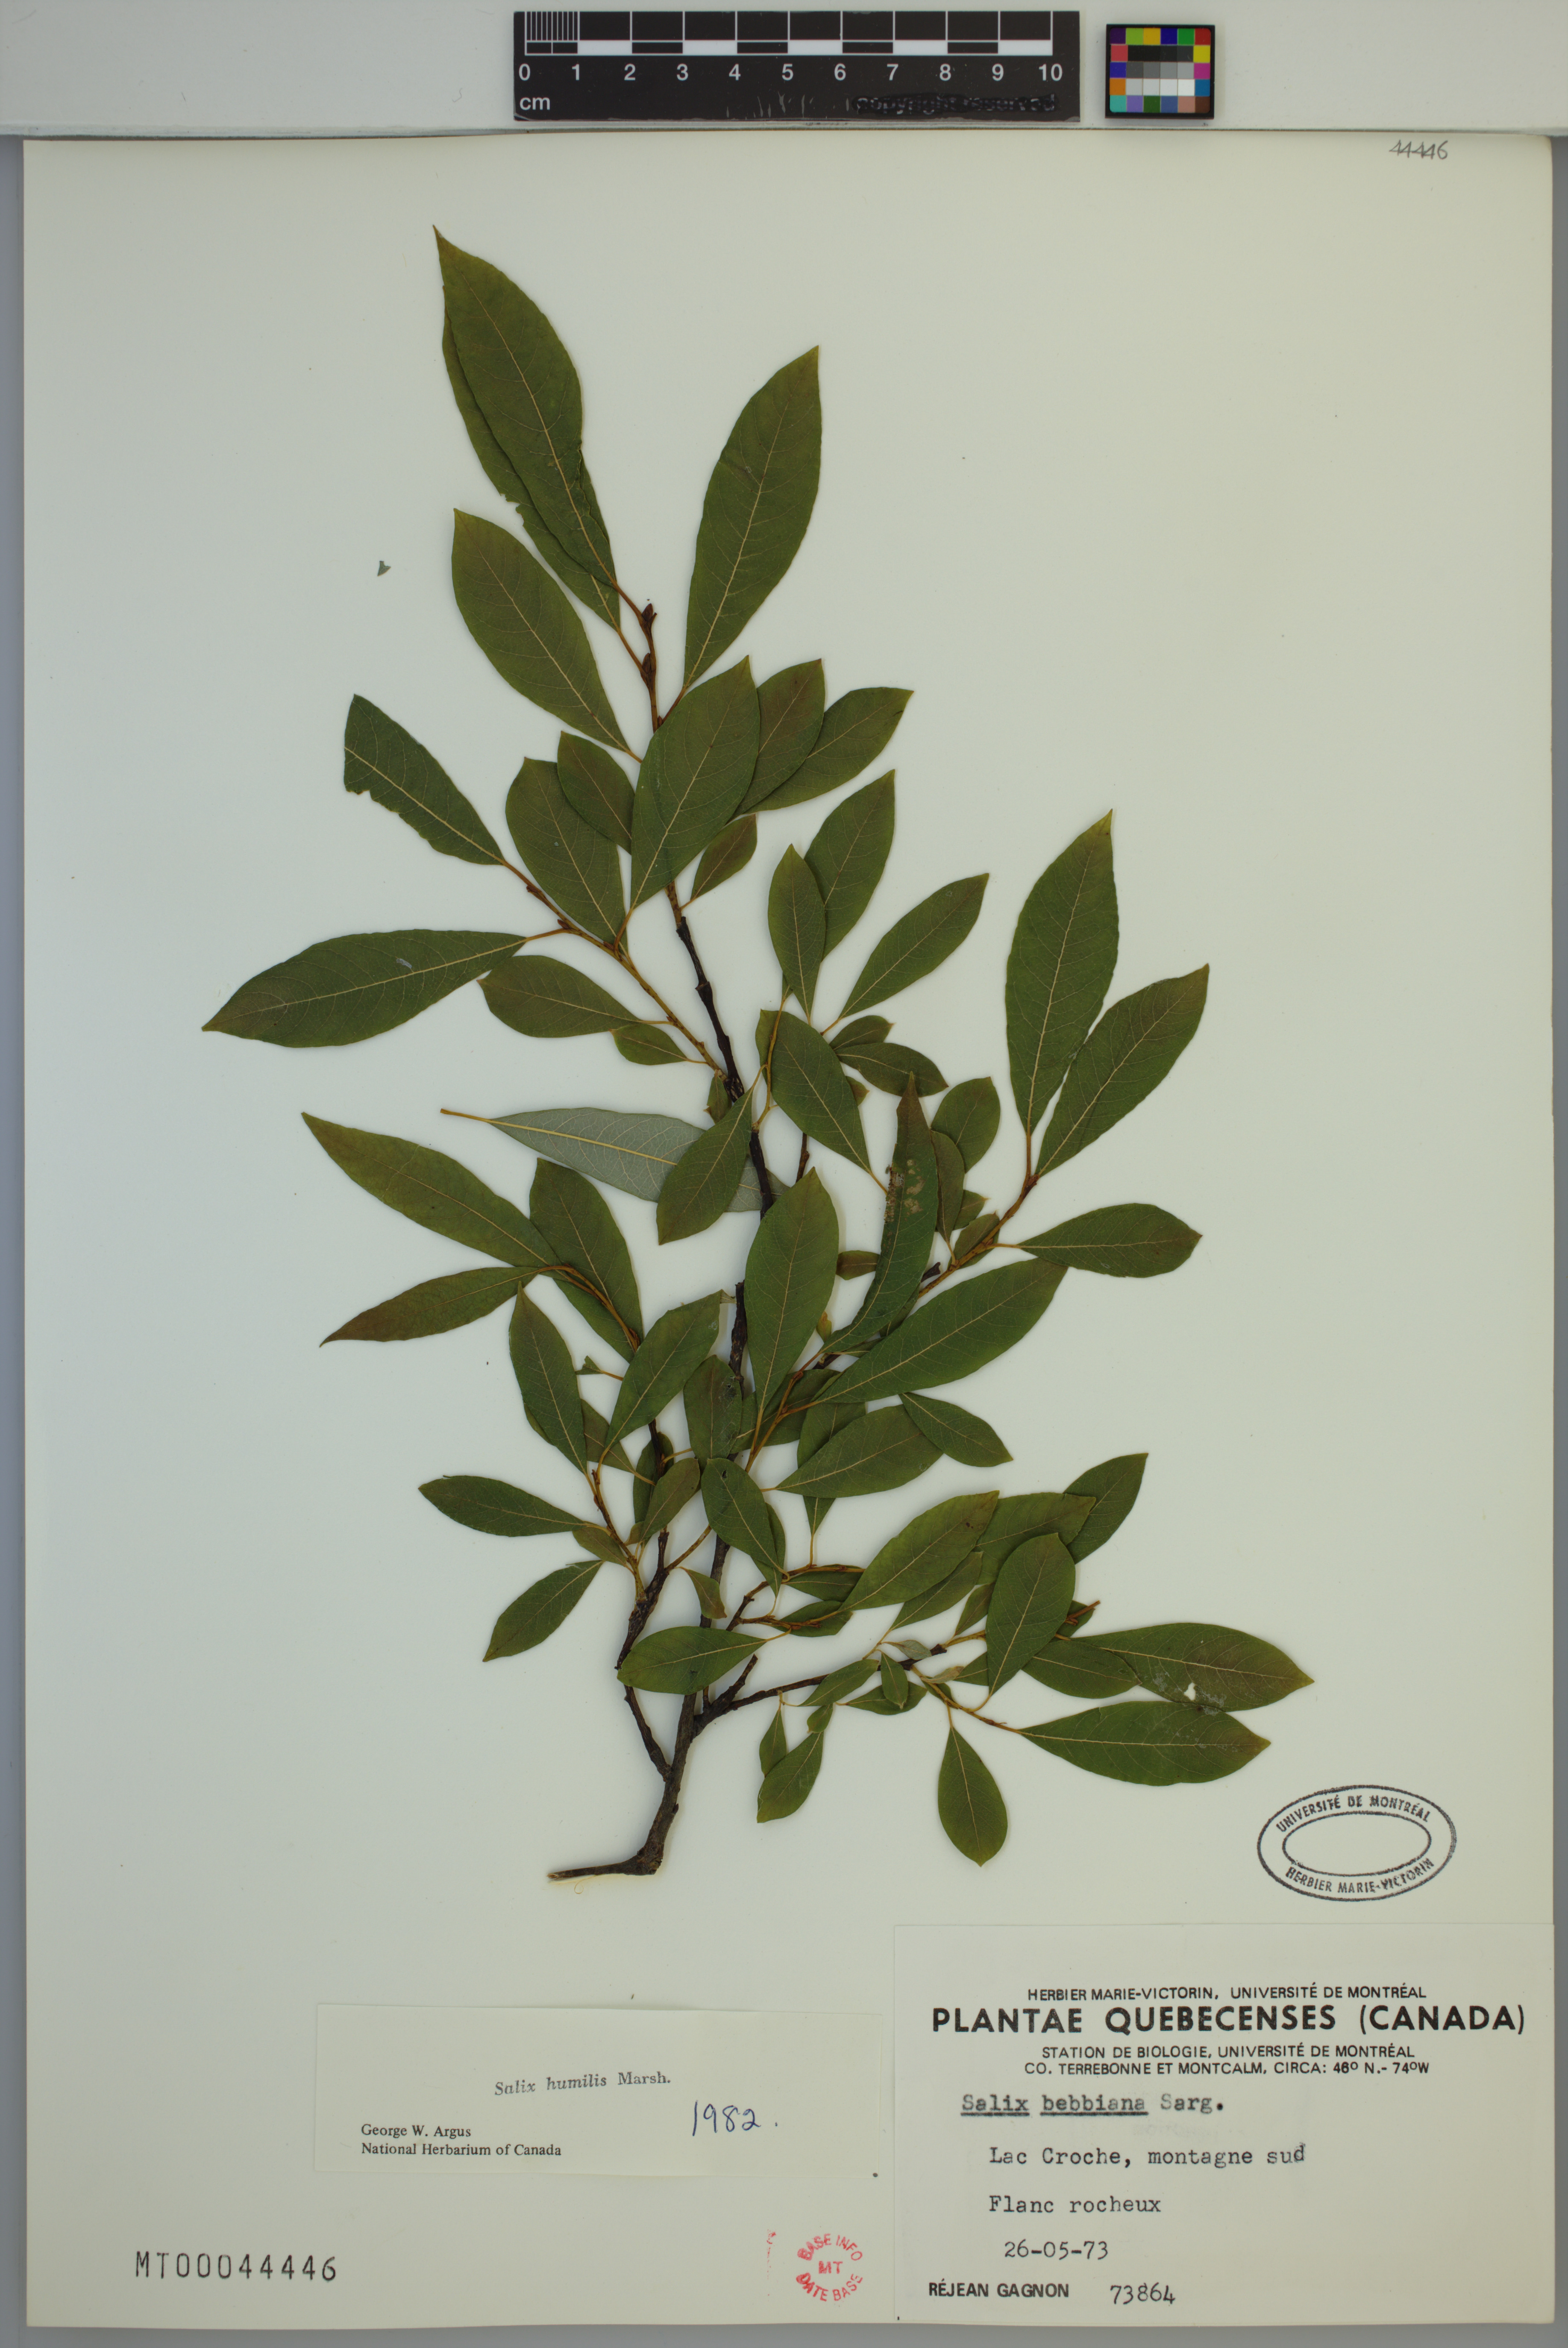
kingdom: Plantae
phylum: Tracheophyta
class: Magnoliopsida
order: Malpighiales
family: Salicaceae
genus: Salix
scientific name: Salix humilis
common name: Prairie willow
